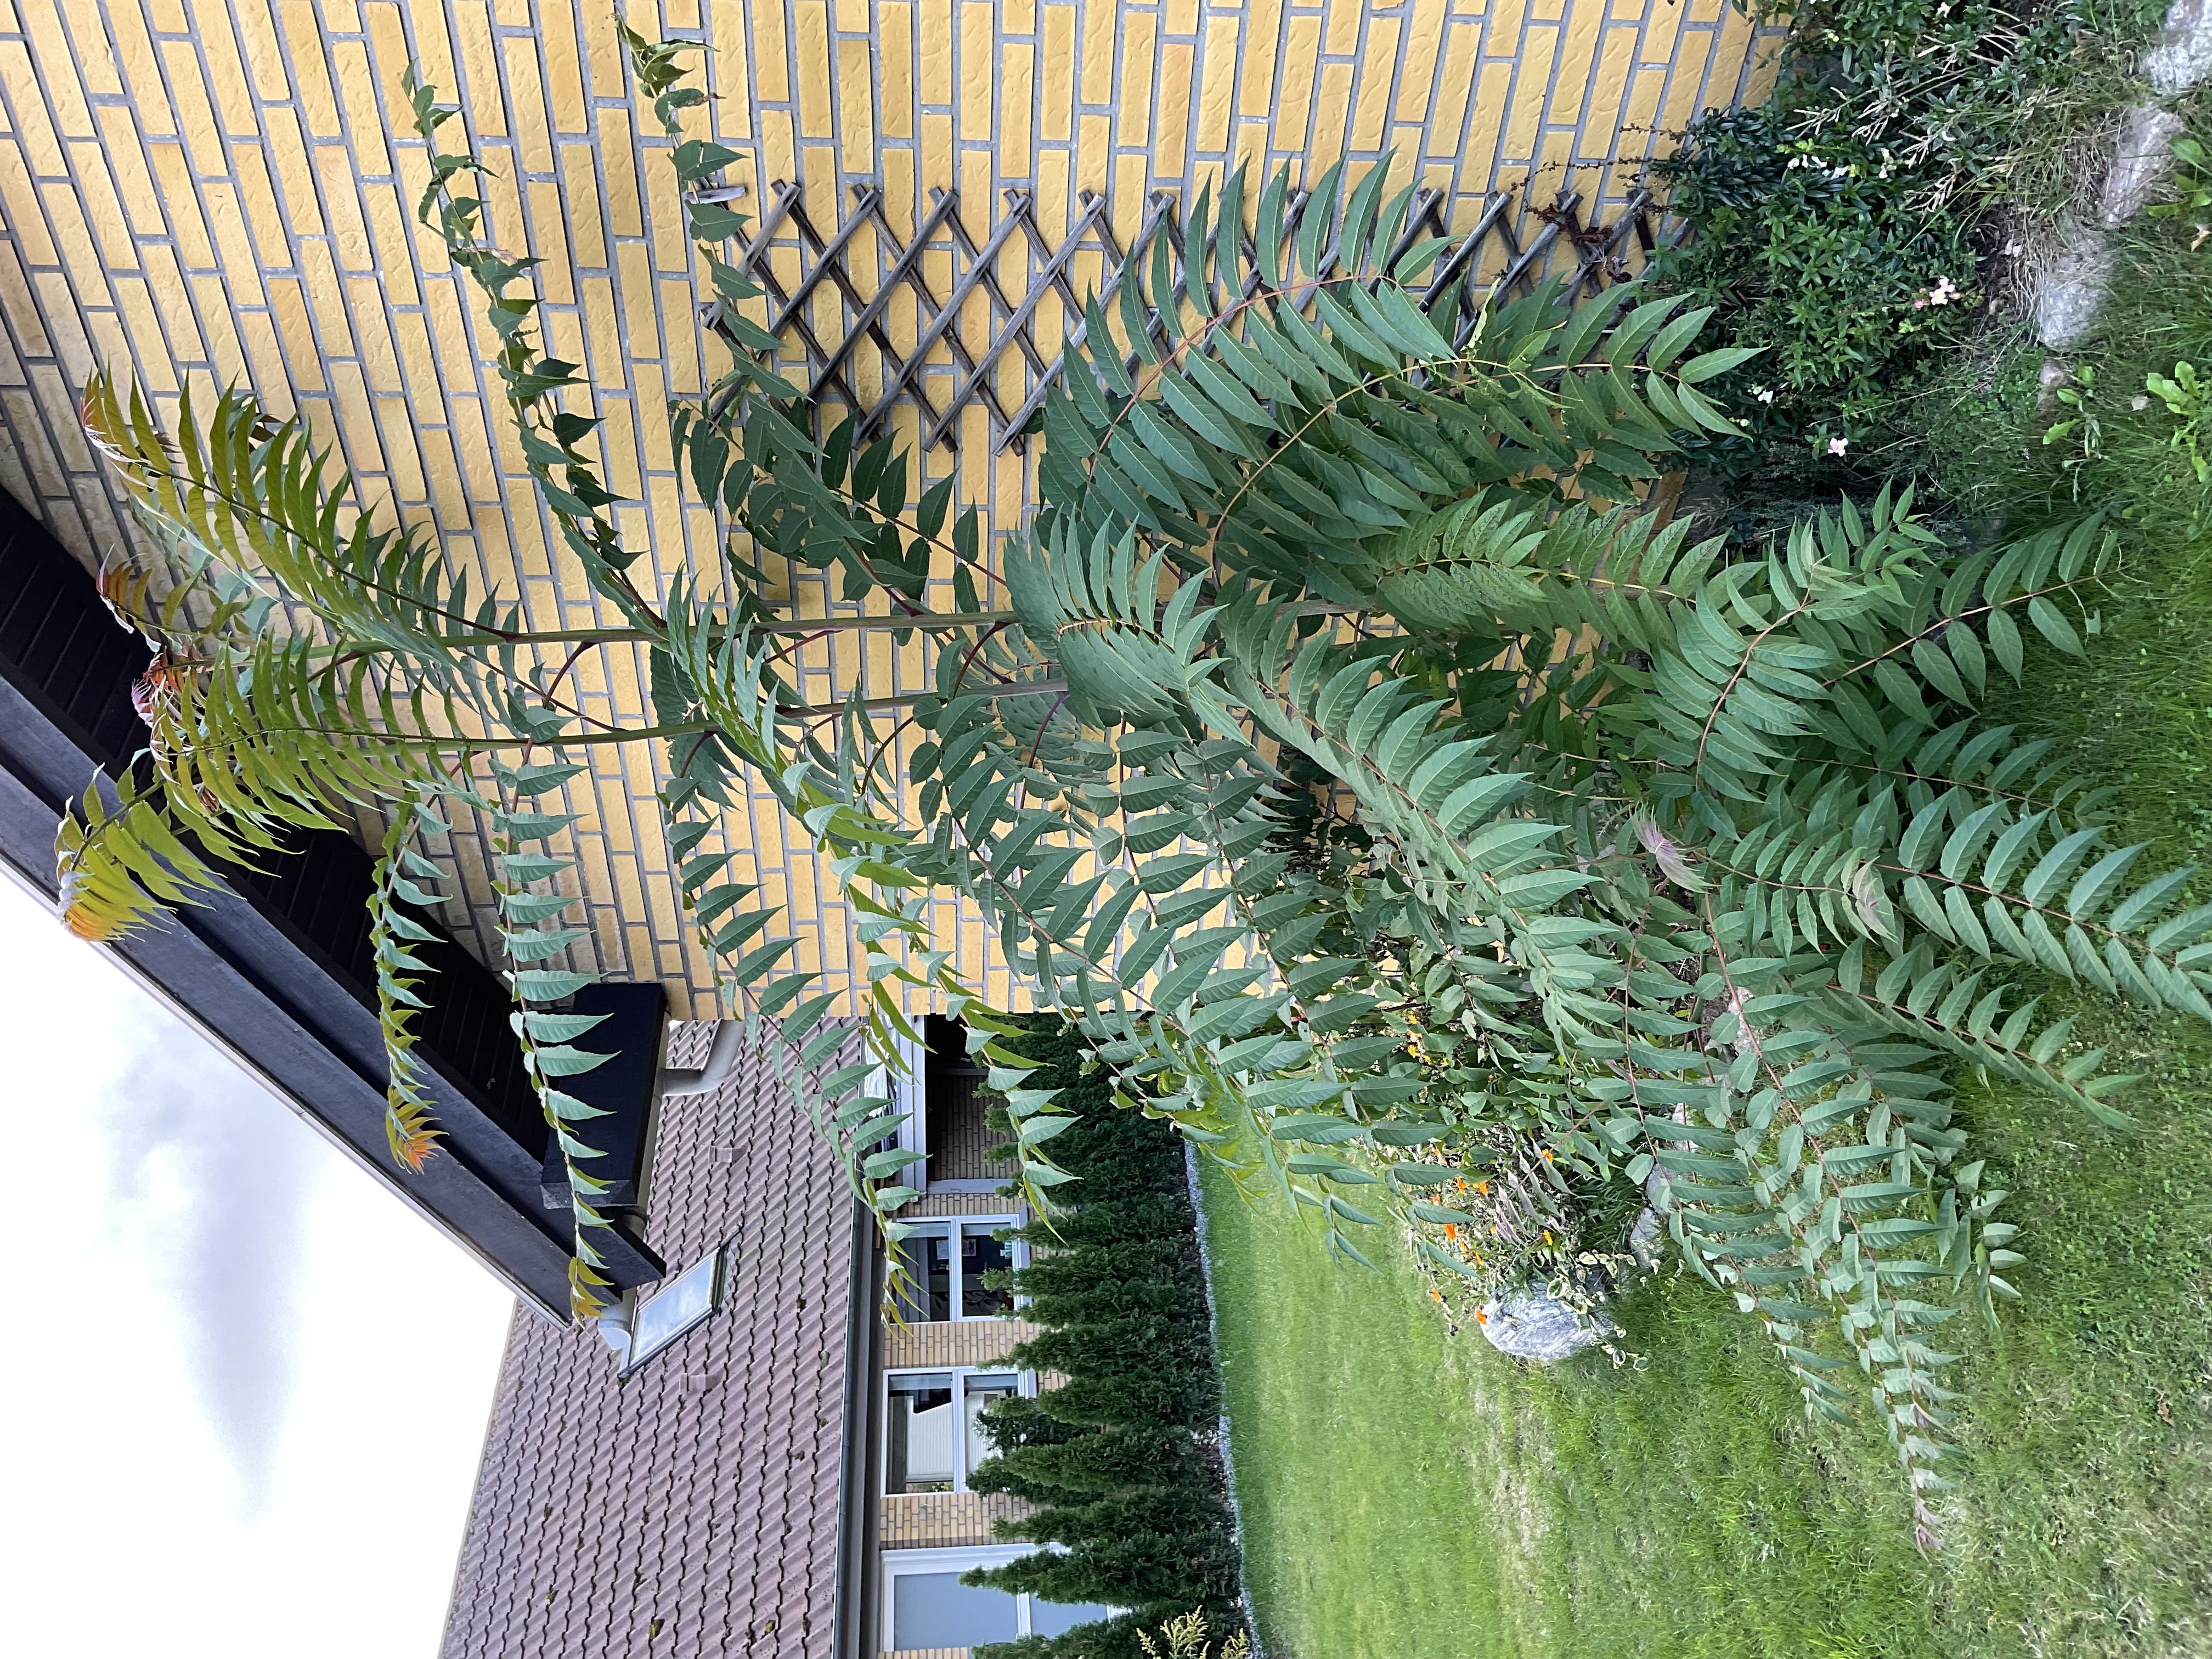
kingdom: Plantae
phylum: Tracheophyta
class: Magnoliopsida
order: Sapindales
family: Simaroubaceae
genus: Ailanthus
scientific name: Ailanthus altissima
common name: Skyrækker
